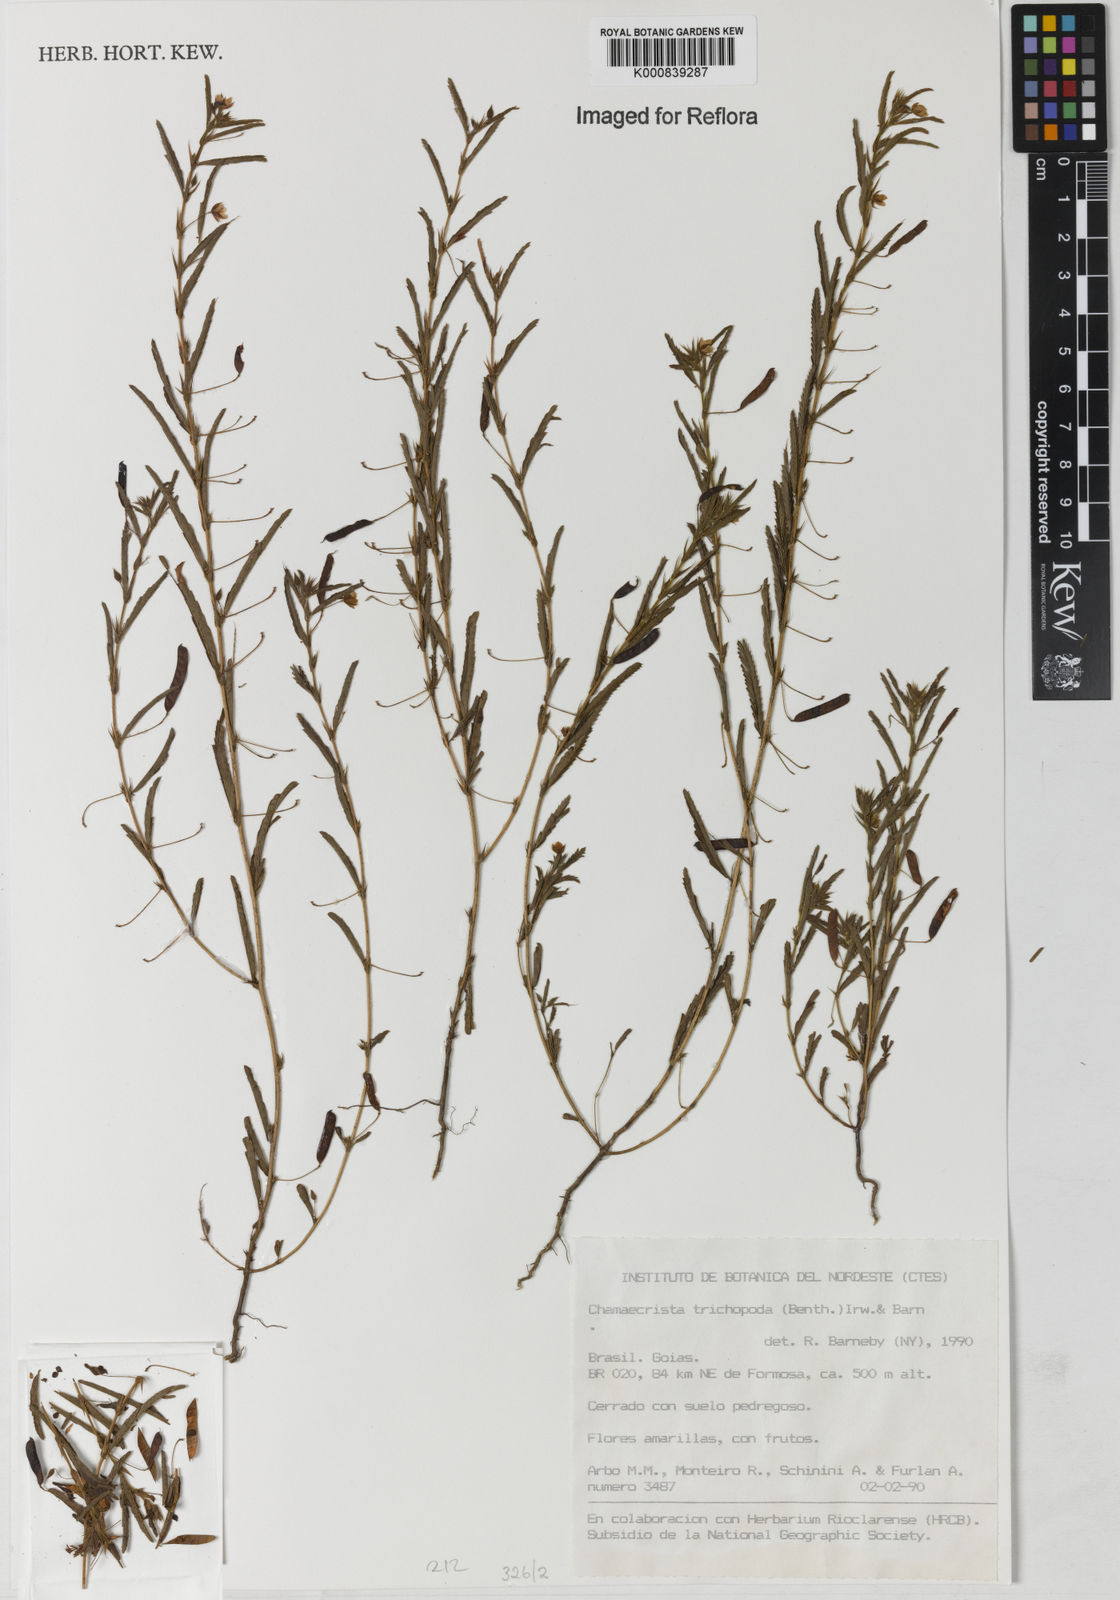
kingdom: Plantae
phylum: Tracheophyta
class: Magnoliopsida
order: Fabales
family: Fabaceae
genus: Chamaecrista
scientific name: Chamaecrista trichopoda
